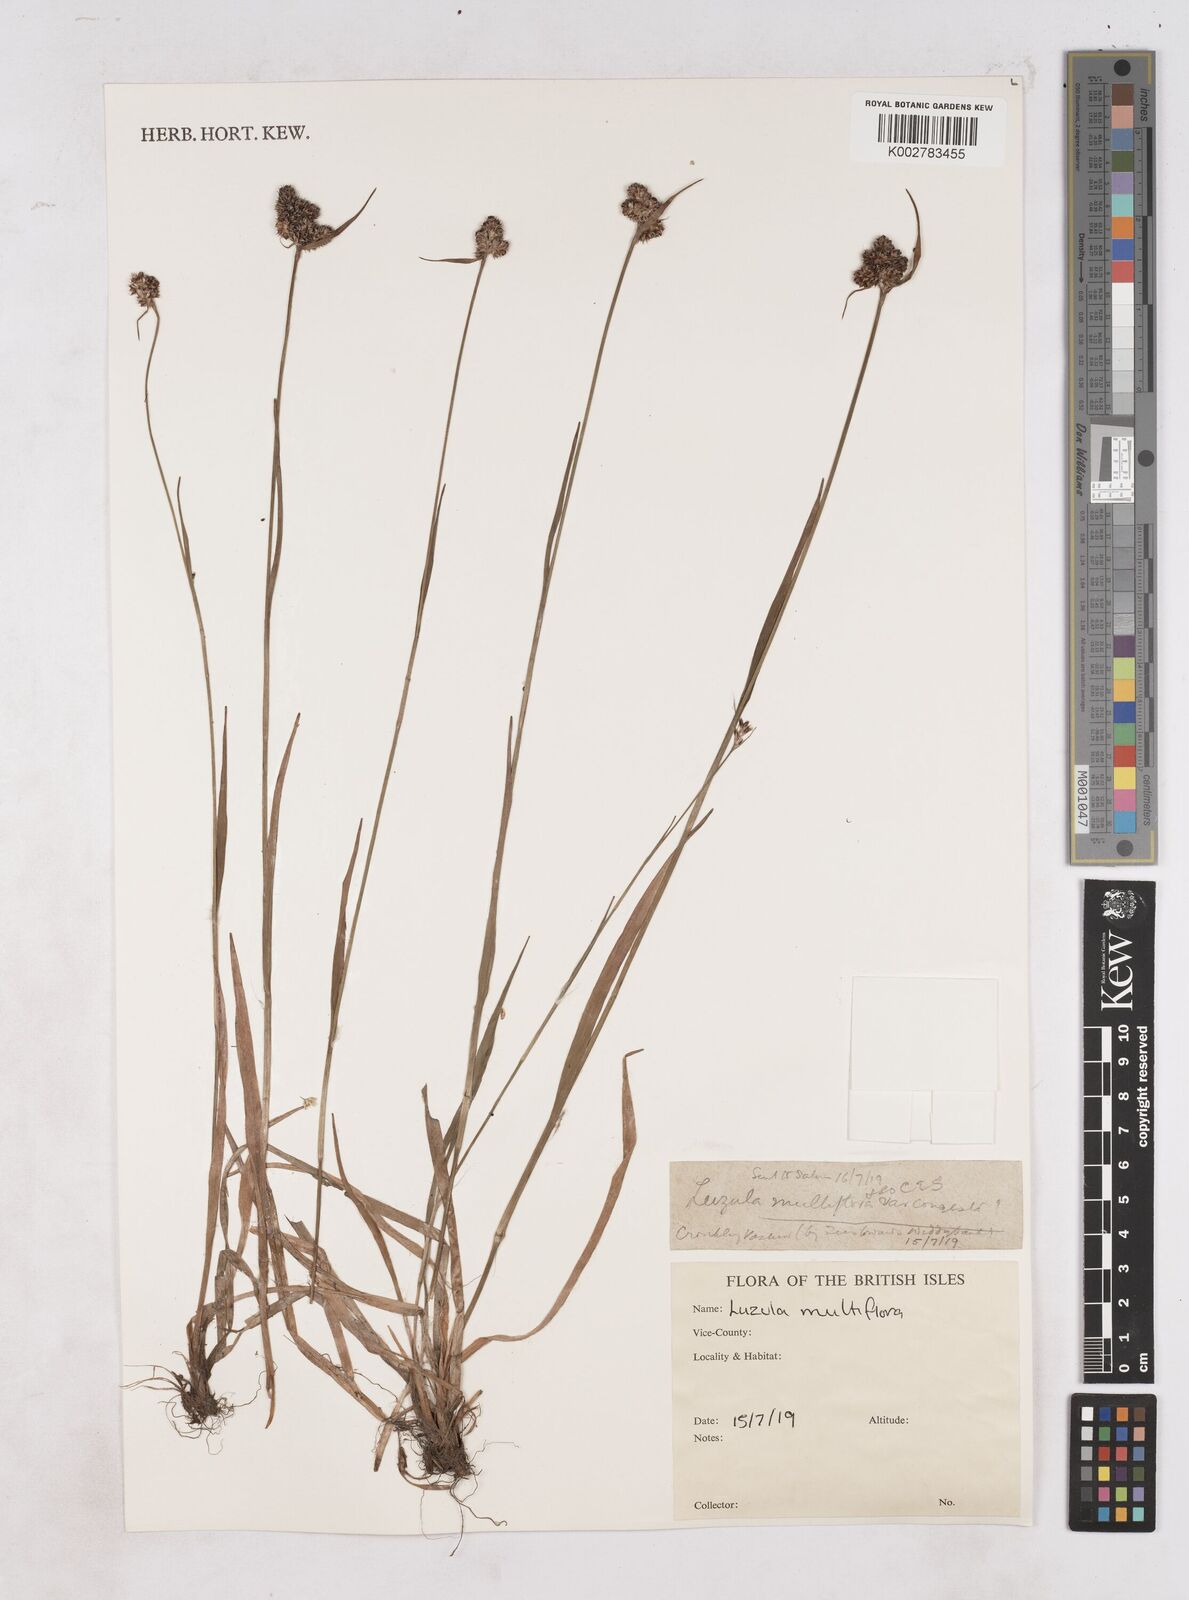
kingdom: Plantae
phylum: Tracheophyta
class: Liliopsida
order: Poales
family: Juncaceae
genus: Luzula
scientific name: Luzula campestris
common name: Field wood-rush
